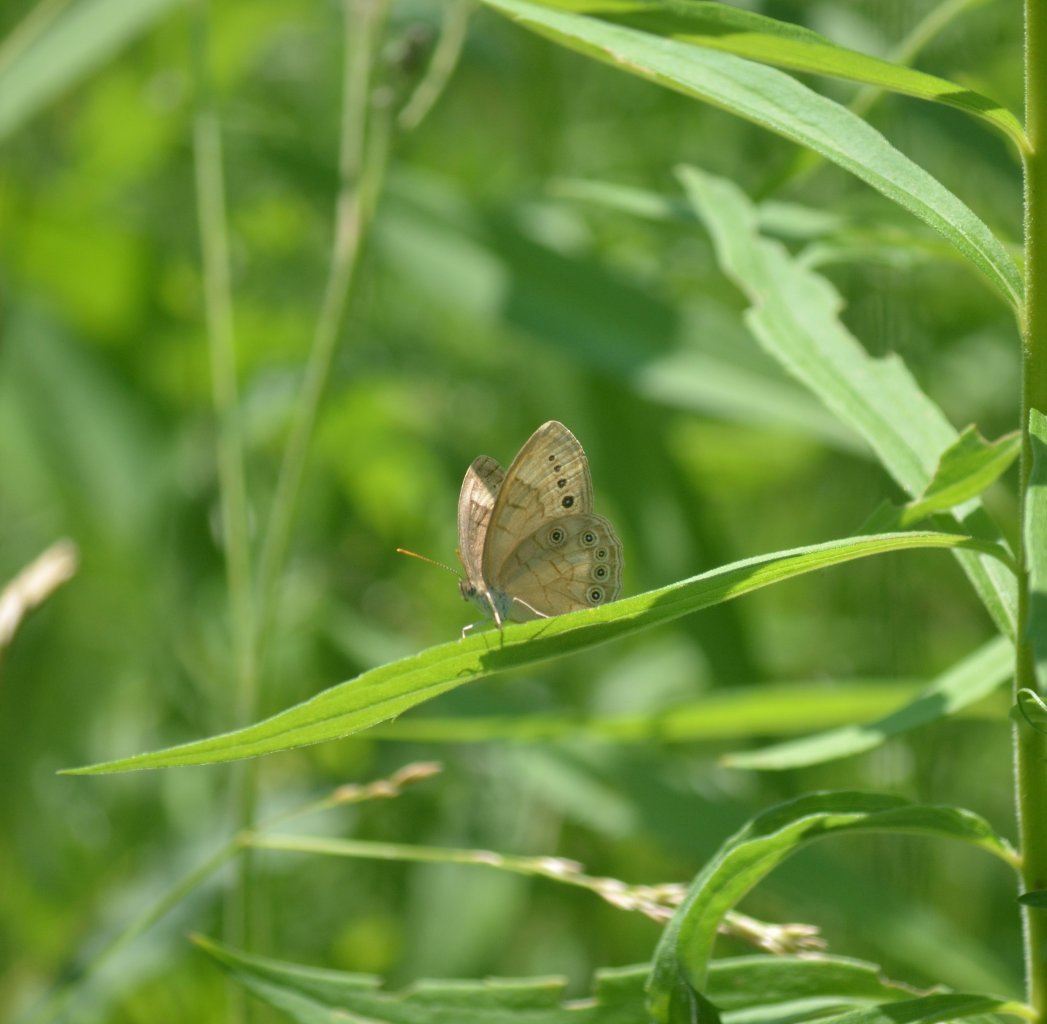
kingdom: Animalia
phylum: Arthropoda
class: Insecta
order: Lepidoptera
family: Nymphalidae
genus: Lethe
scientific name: Lethe eurydice
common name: Eyed Brown
